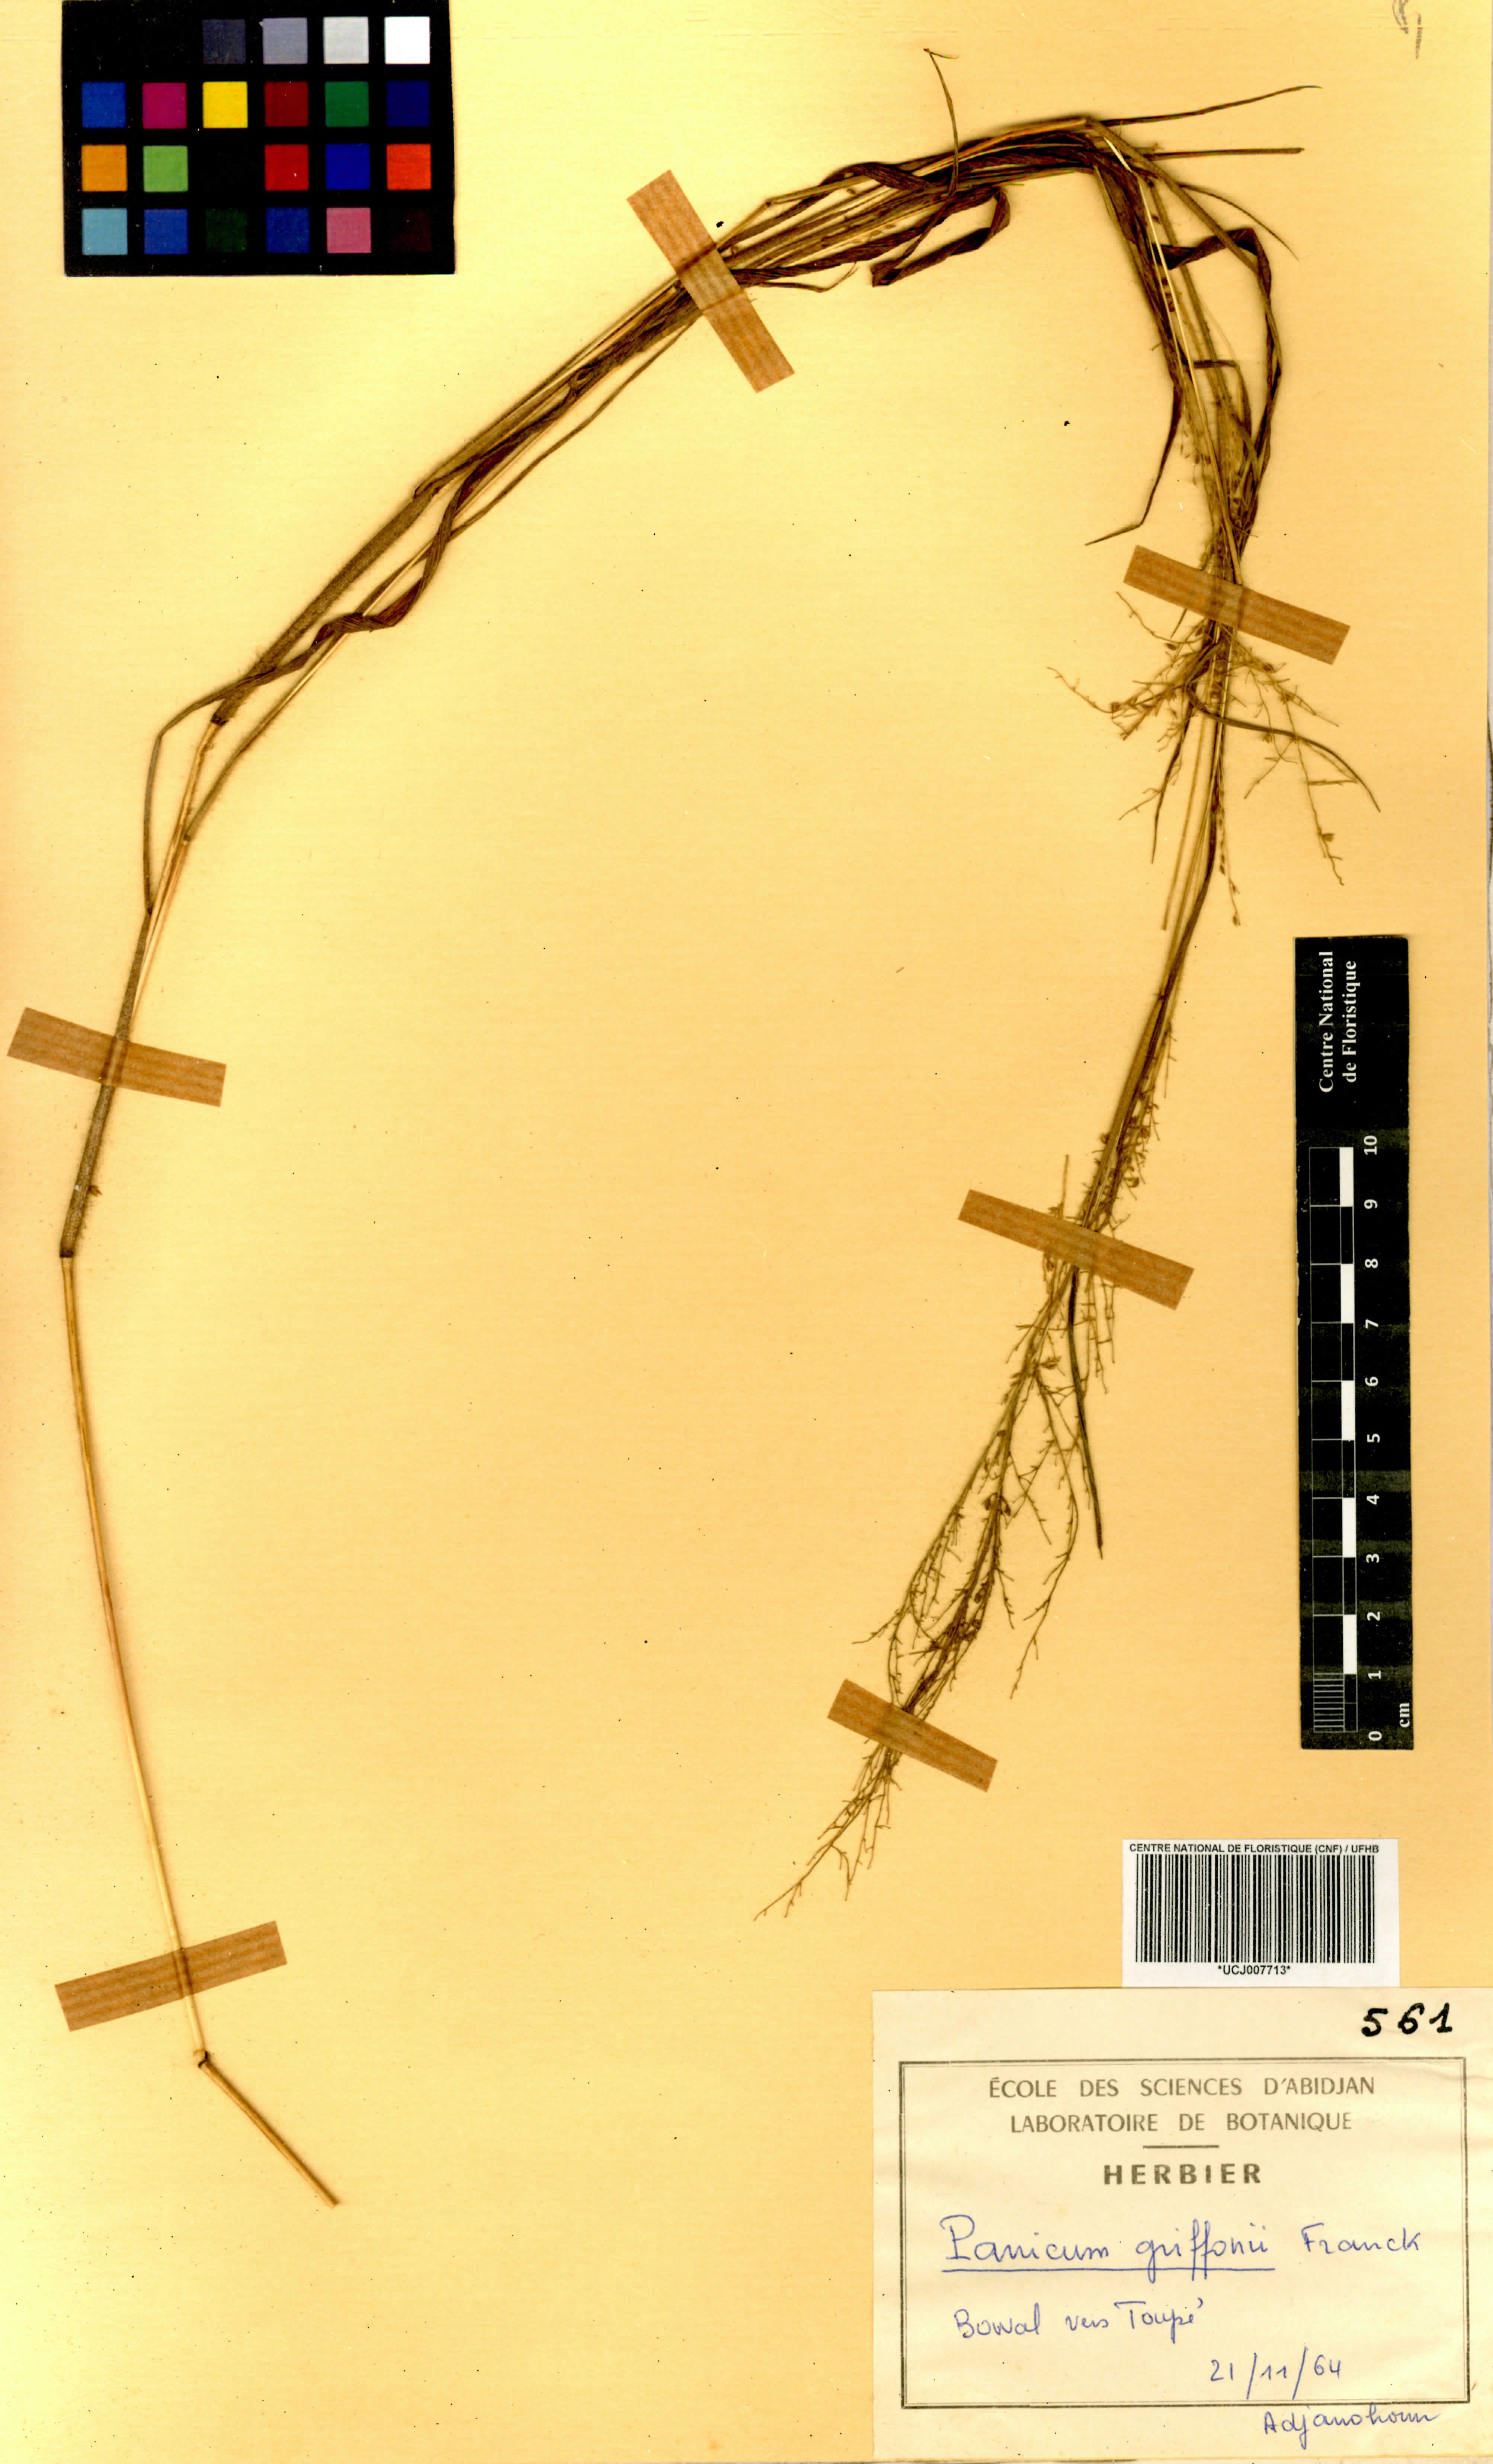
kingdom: Plantae
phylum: Tracheophyta
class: Liliopsida
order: Poales
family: Poaceae
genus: Panicum
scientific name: Panicum griffonii
